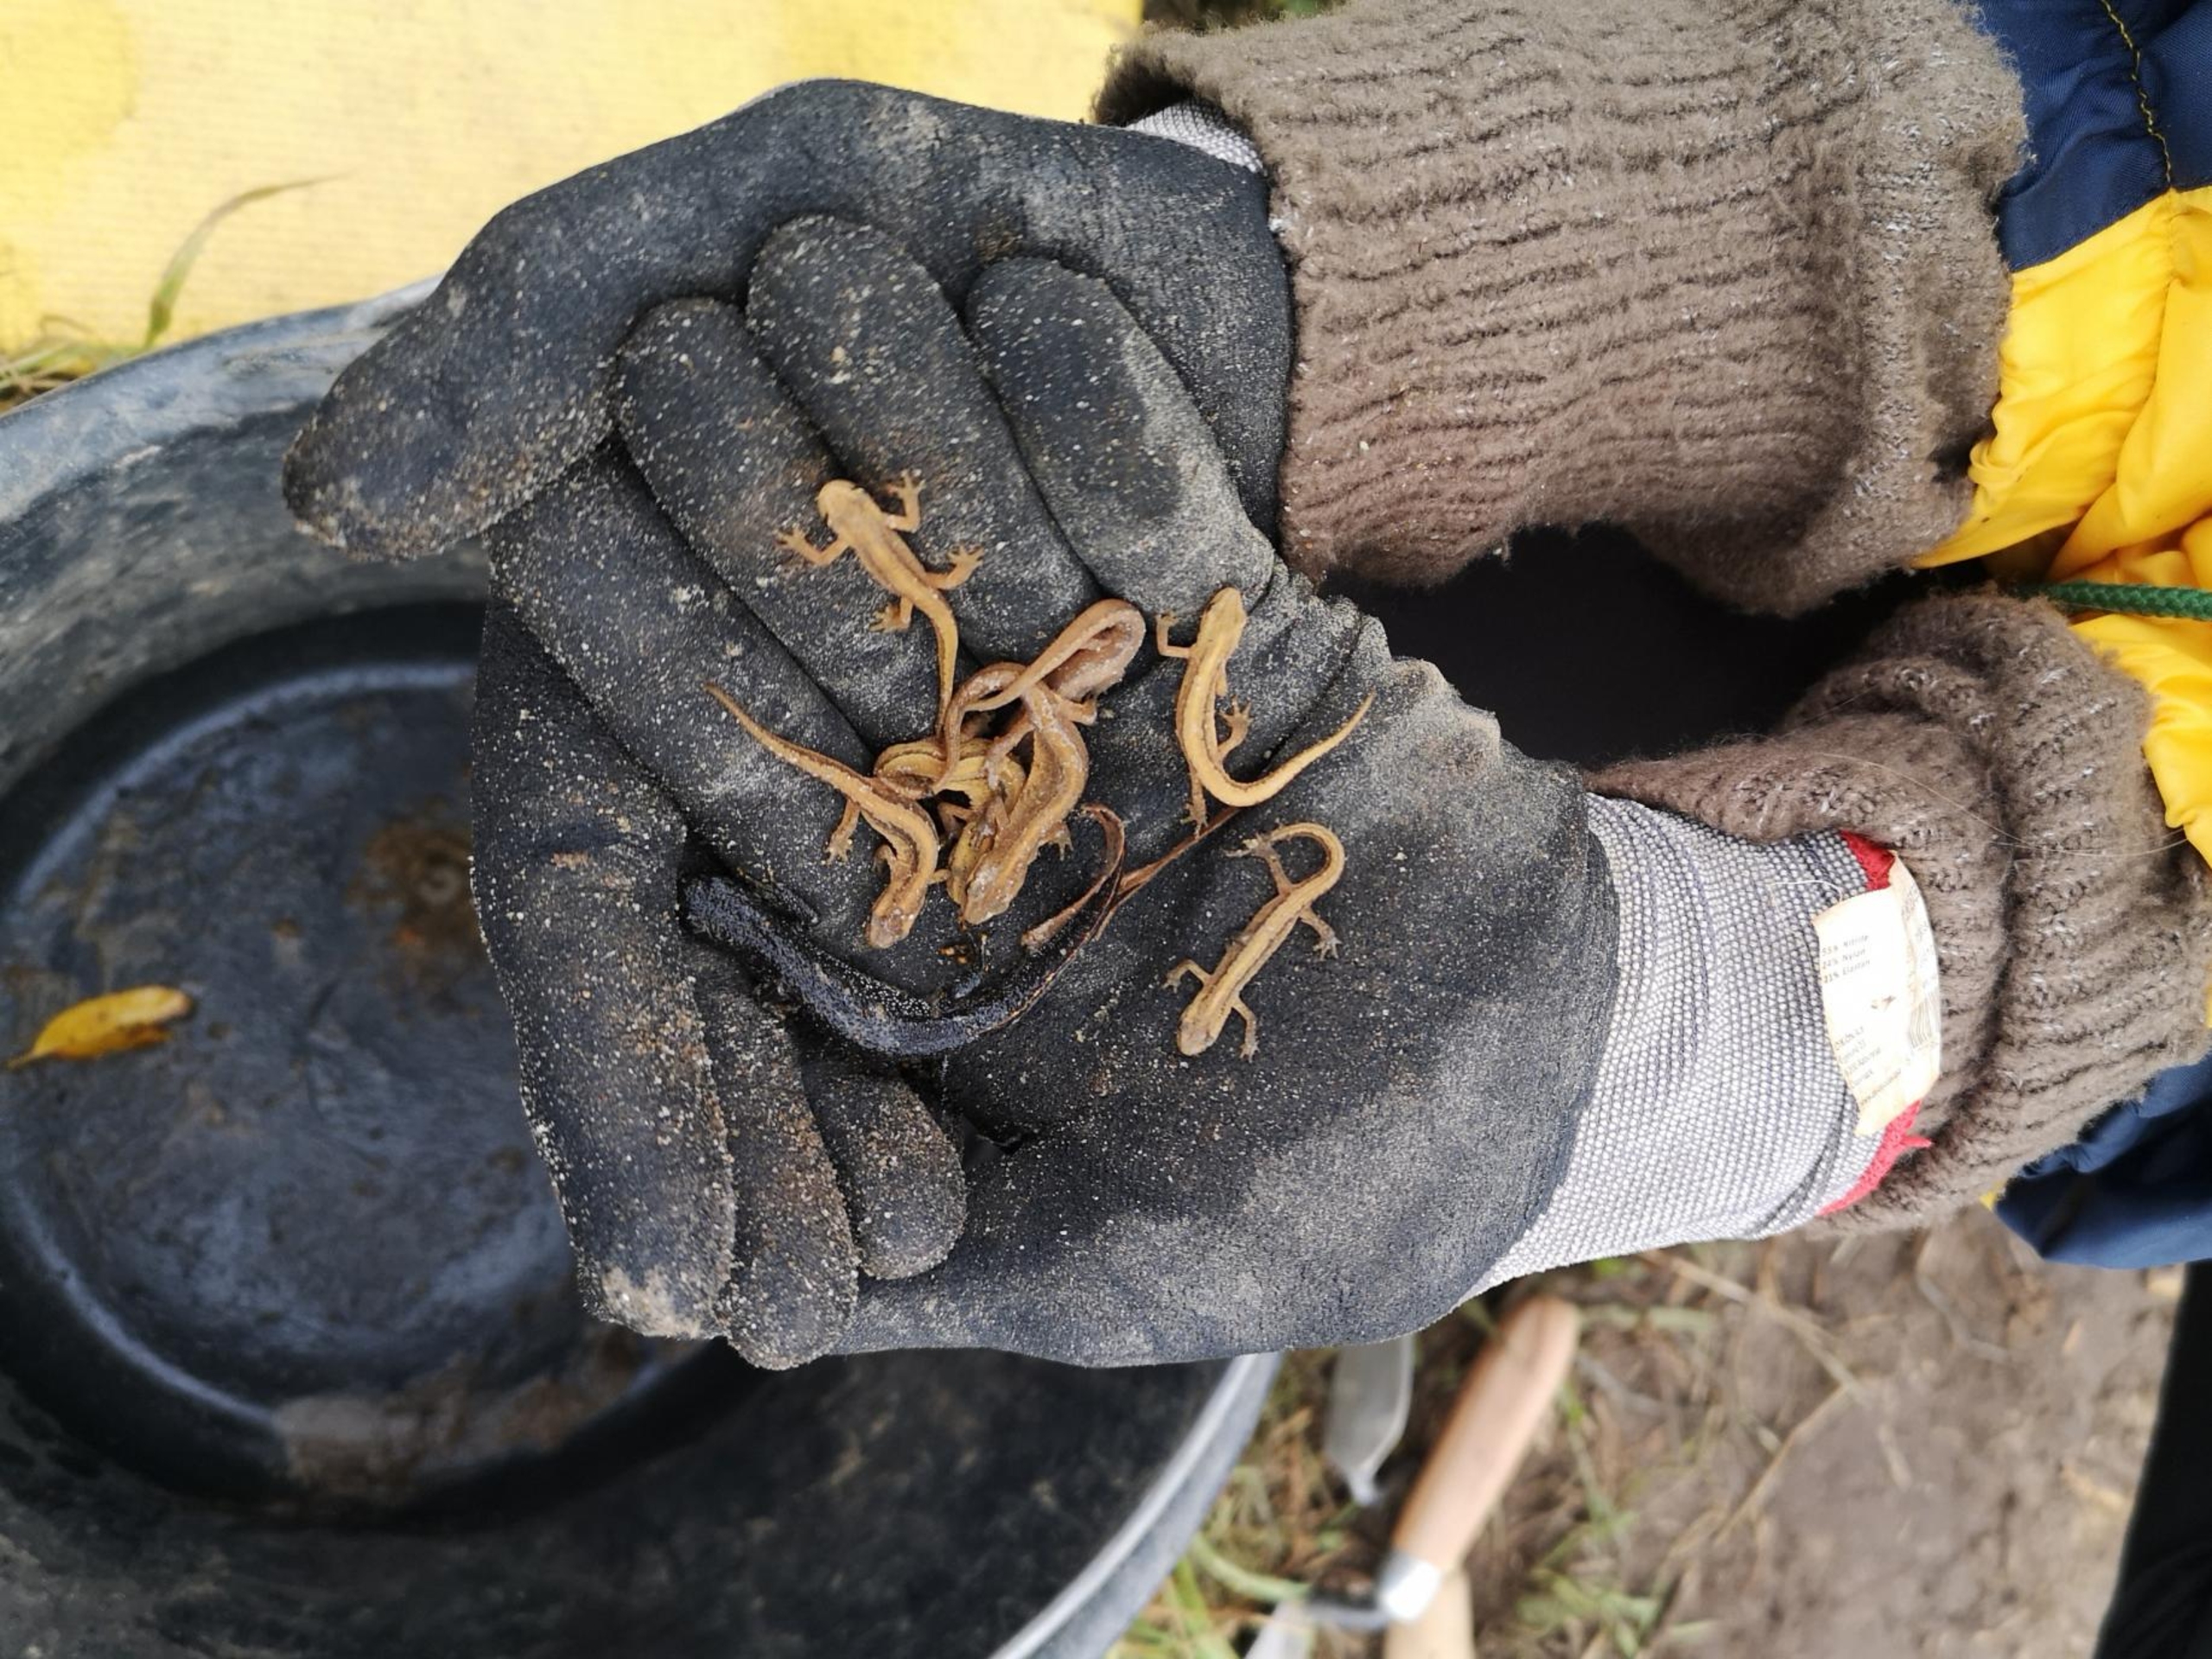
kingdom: Animalia
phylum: Chordata
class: Amphibia
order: Caudata
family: Salamandridae
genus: Lissotriton
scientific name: Lissotriton vulgaris
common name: Lille vandsalamander
